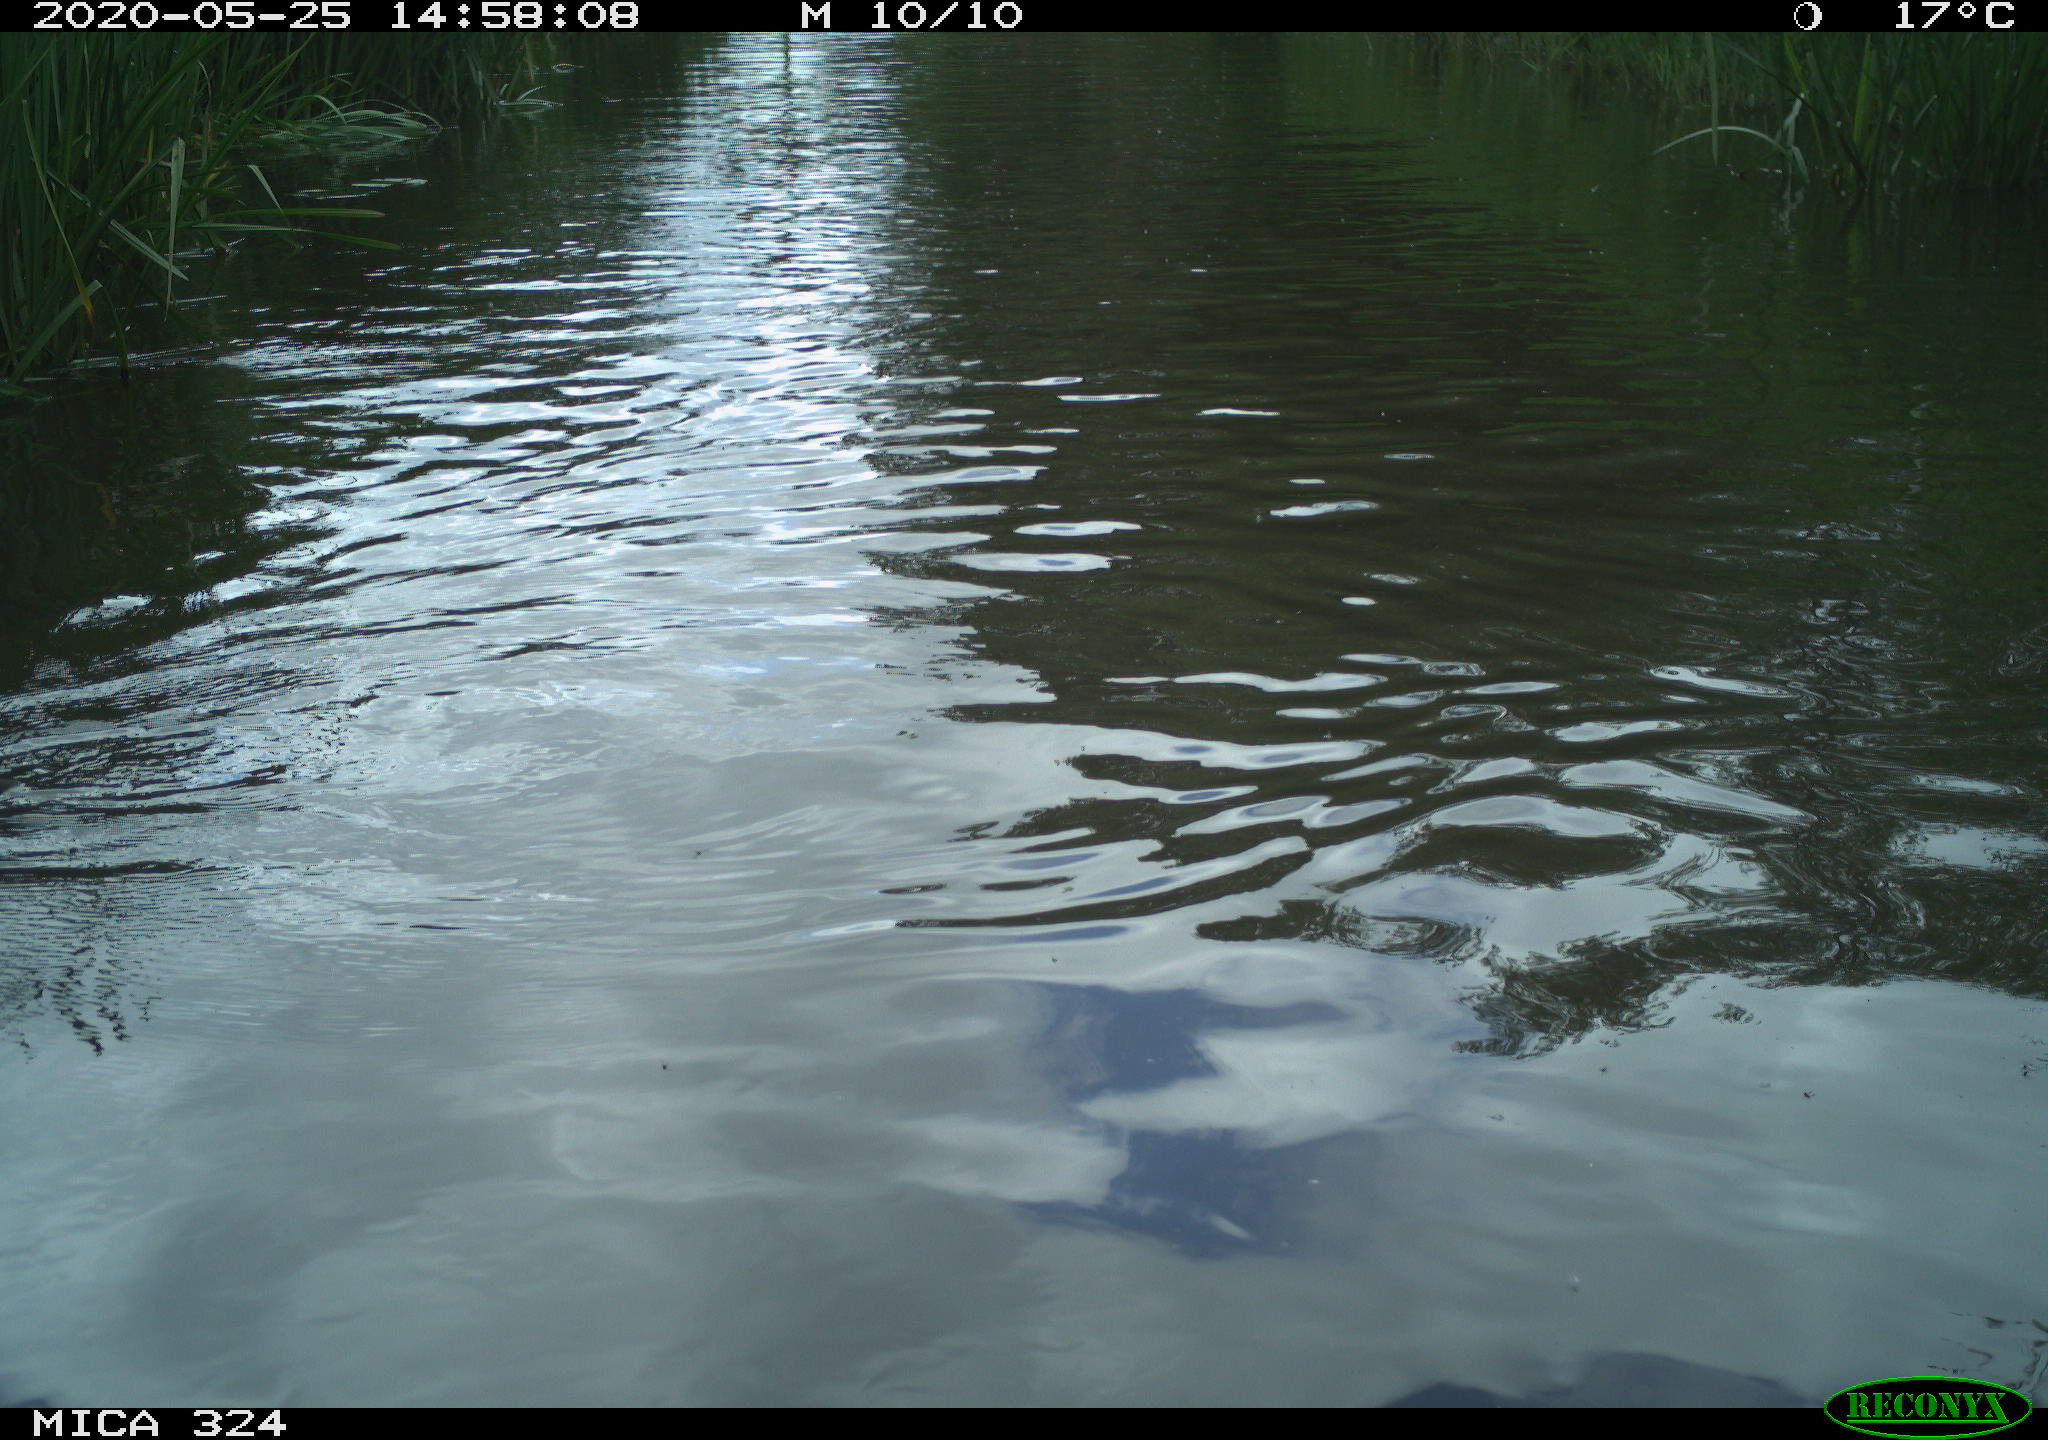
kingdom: Animalia
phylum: Chordata
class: Aves
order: Gruiformes
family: Rallidae
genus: Fulica
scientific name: Fulica atra
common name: Eurasian coot
